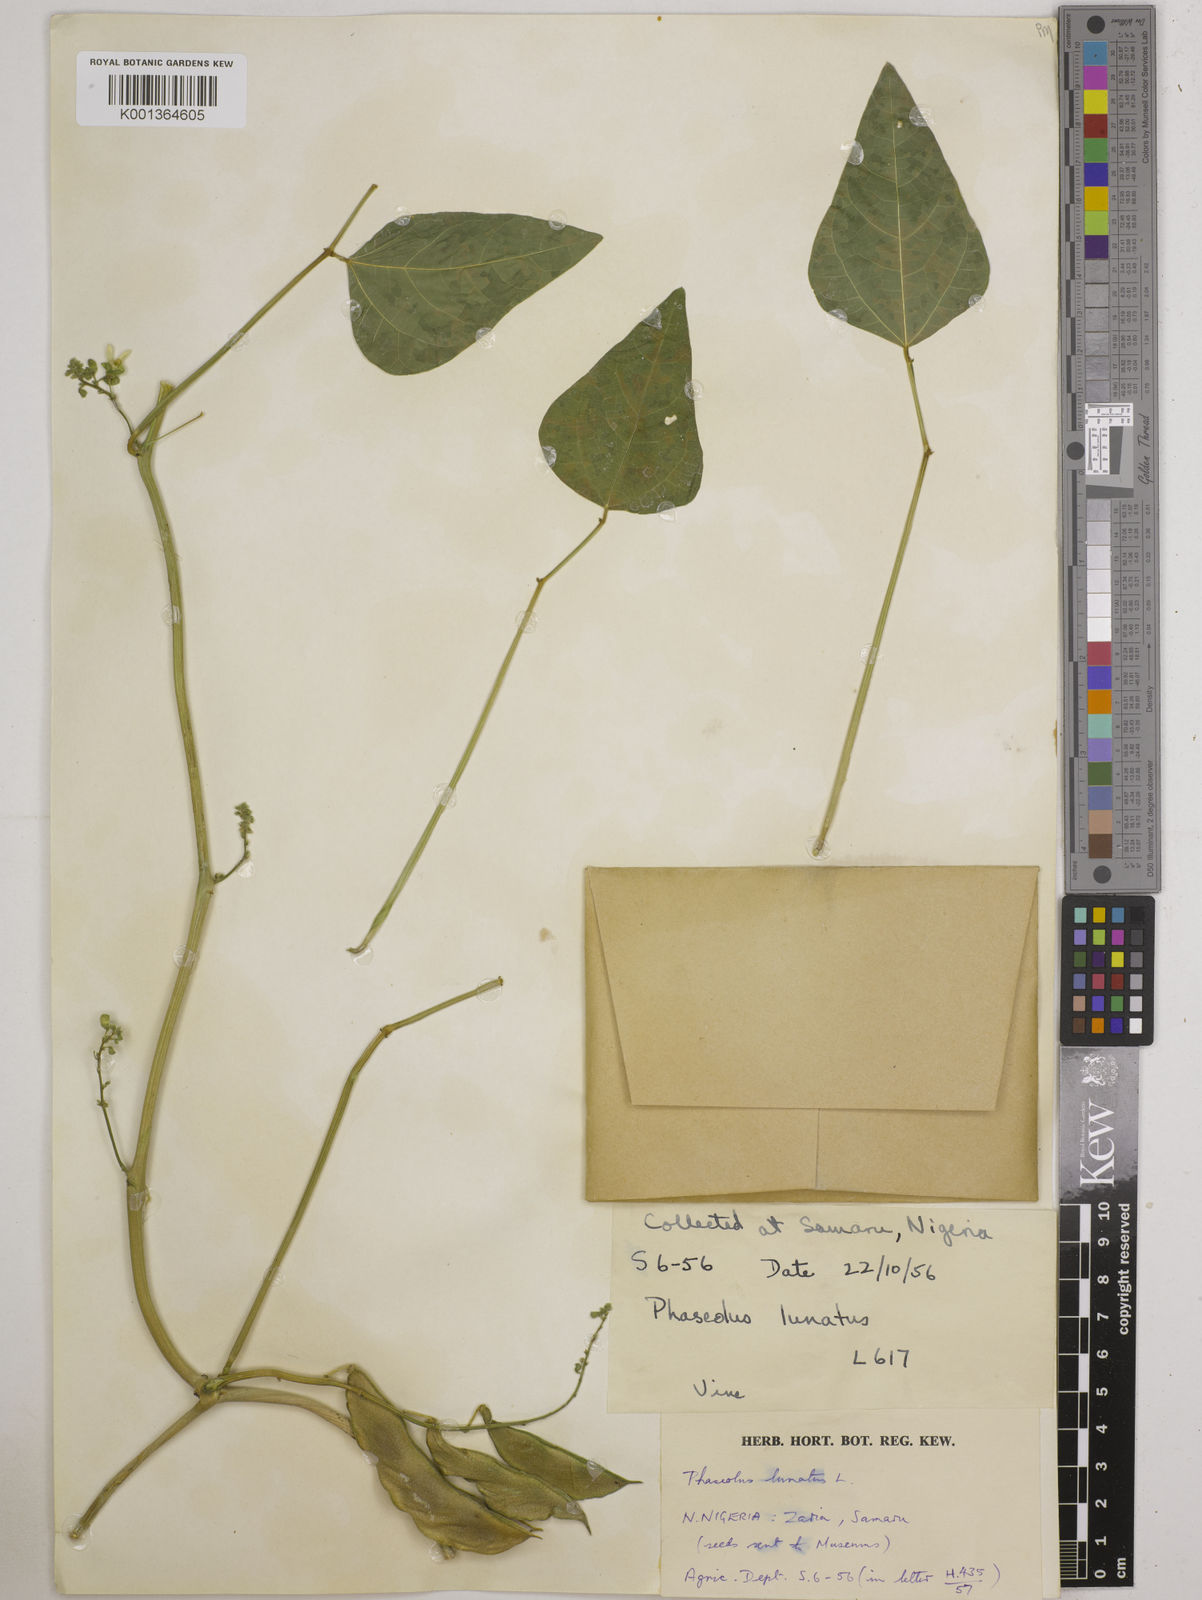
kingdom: Plantae
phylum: Tracheophyta
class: Magnoliopsida
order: Fabales
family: Fabaceae
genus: Phaseolus
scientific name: Phaseolus lunatus
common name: Sieva bean
